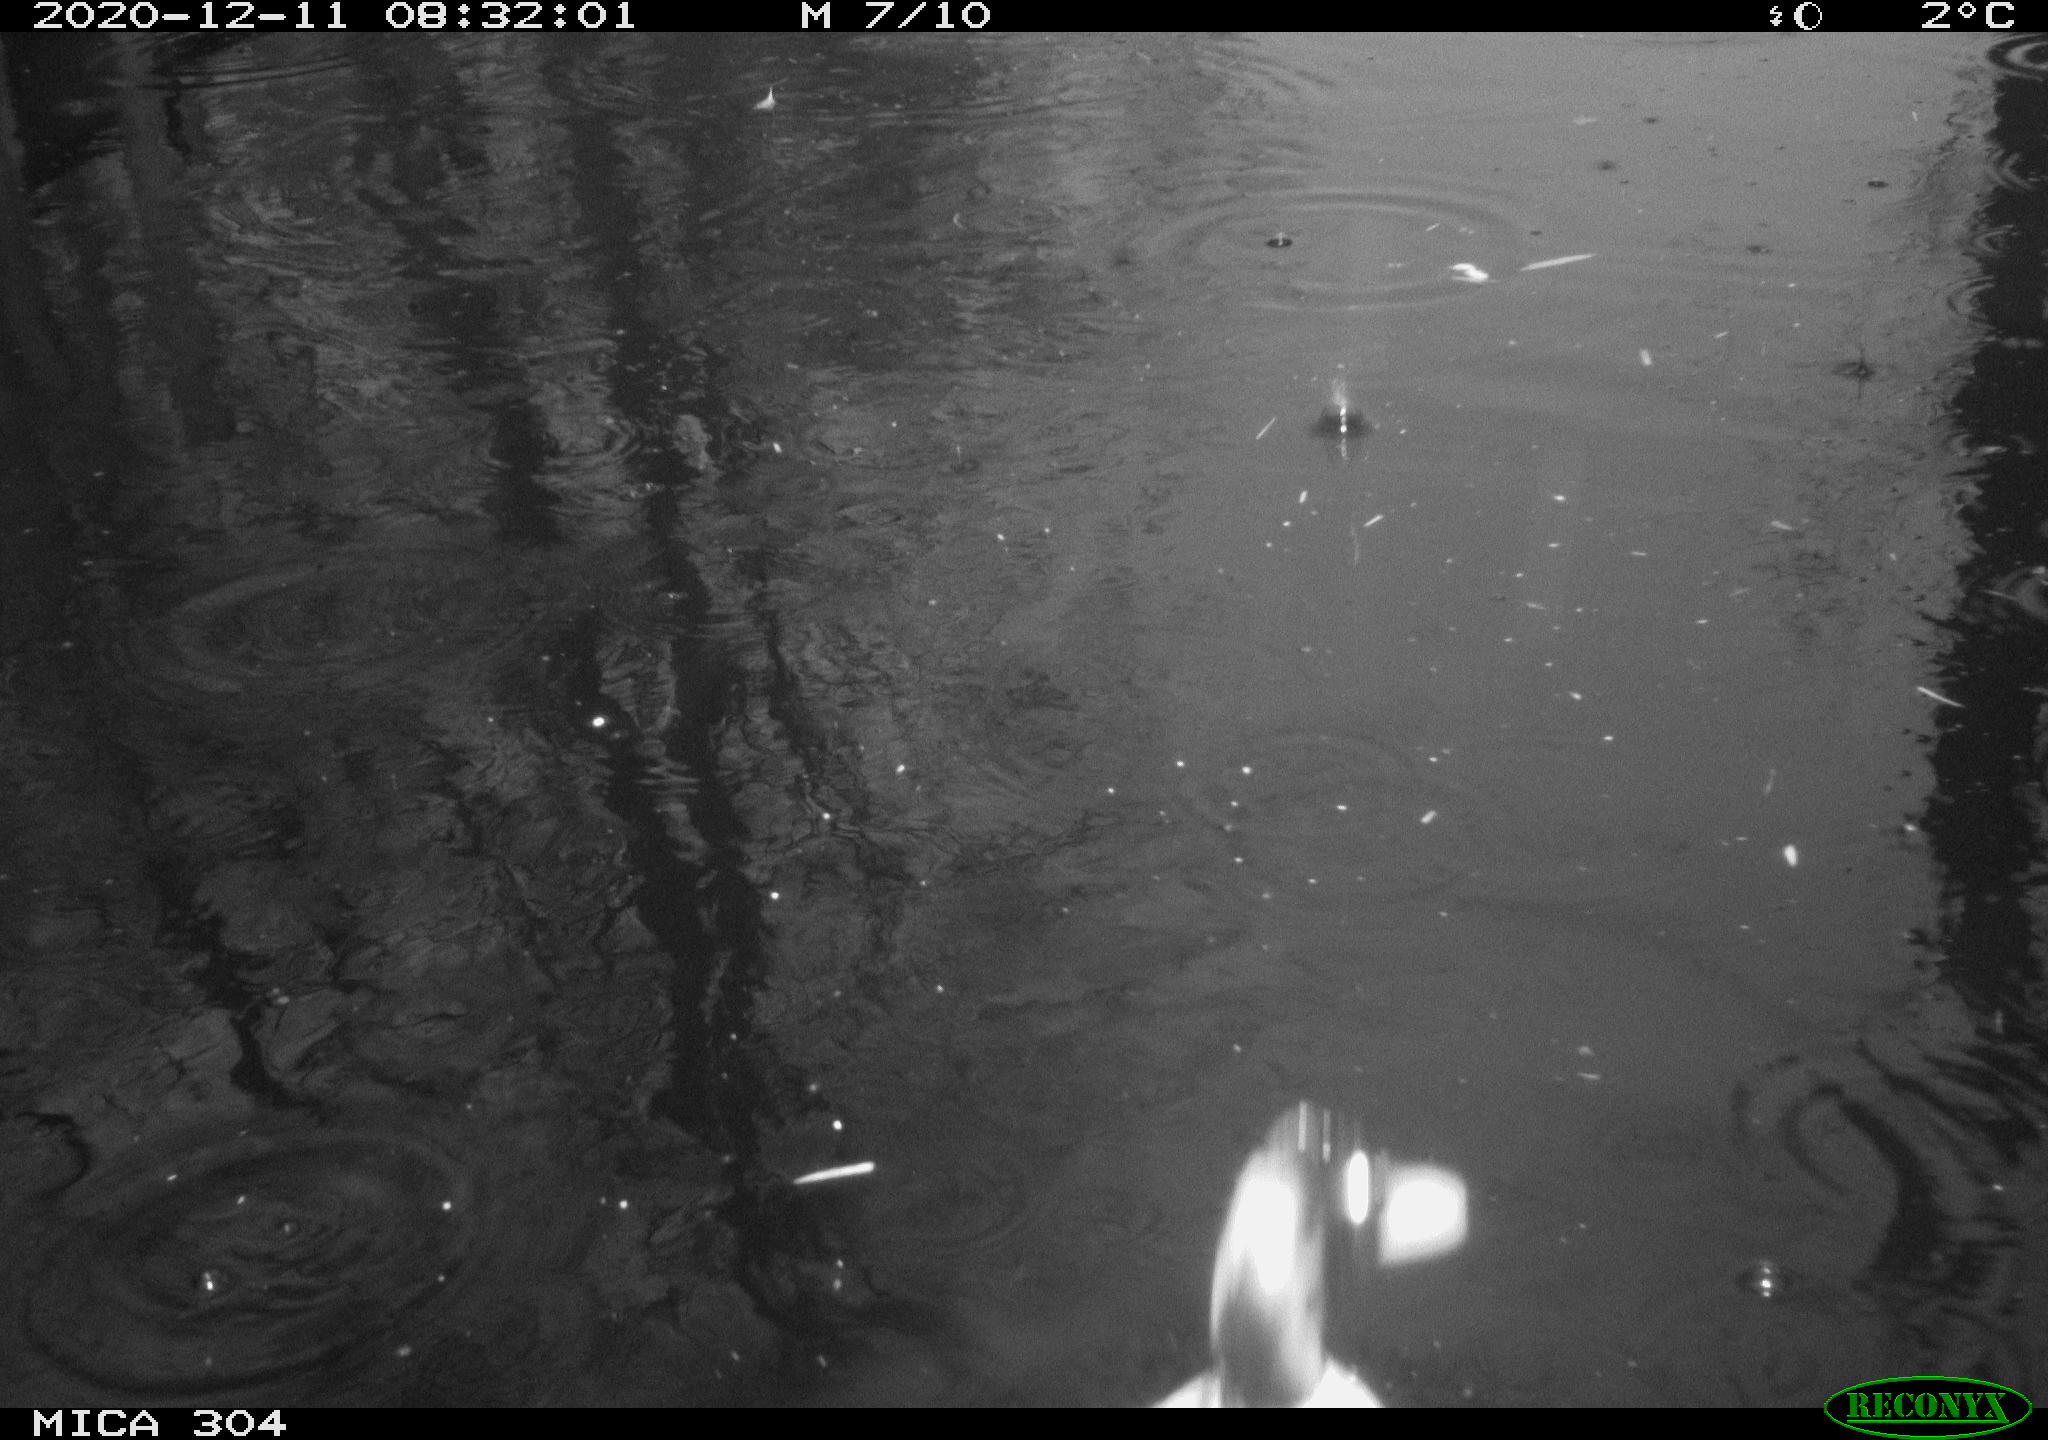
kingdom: Animalia
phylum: Chordata
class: Aves
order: Anseriformes
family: Anatidae
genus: Anas
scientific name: Anas platyrhynchos
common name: Mallard
